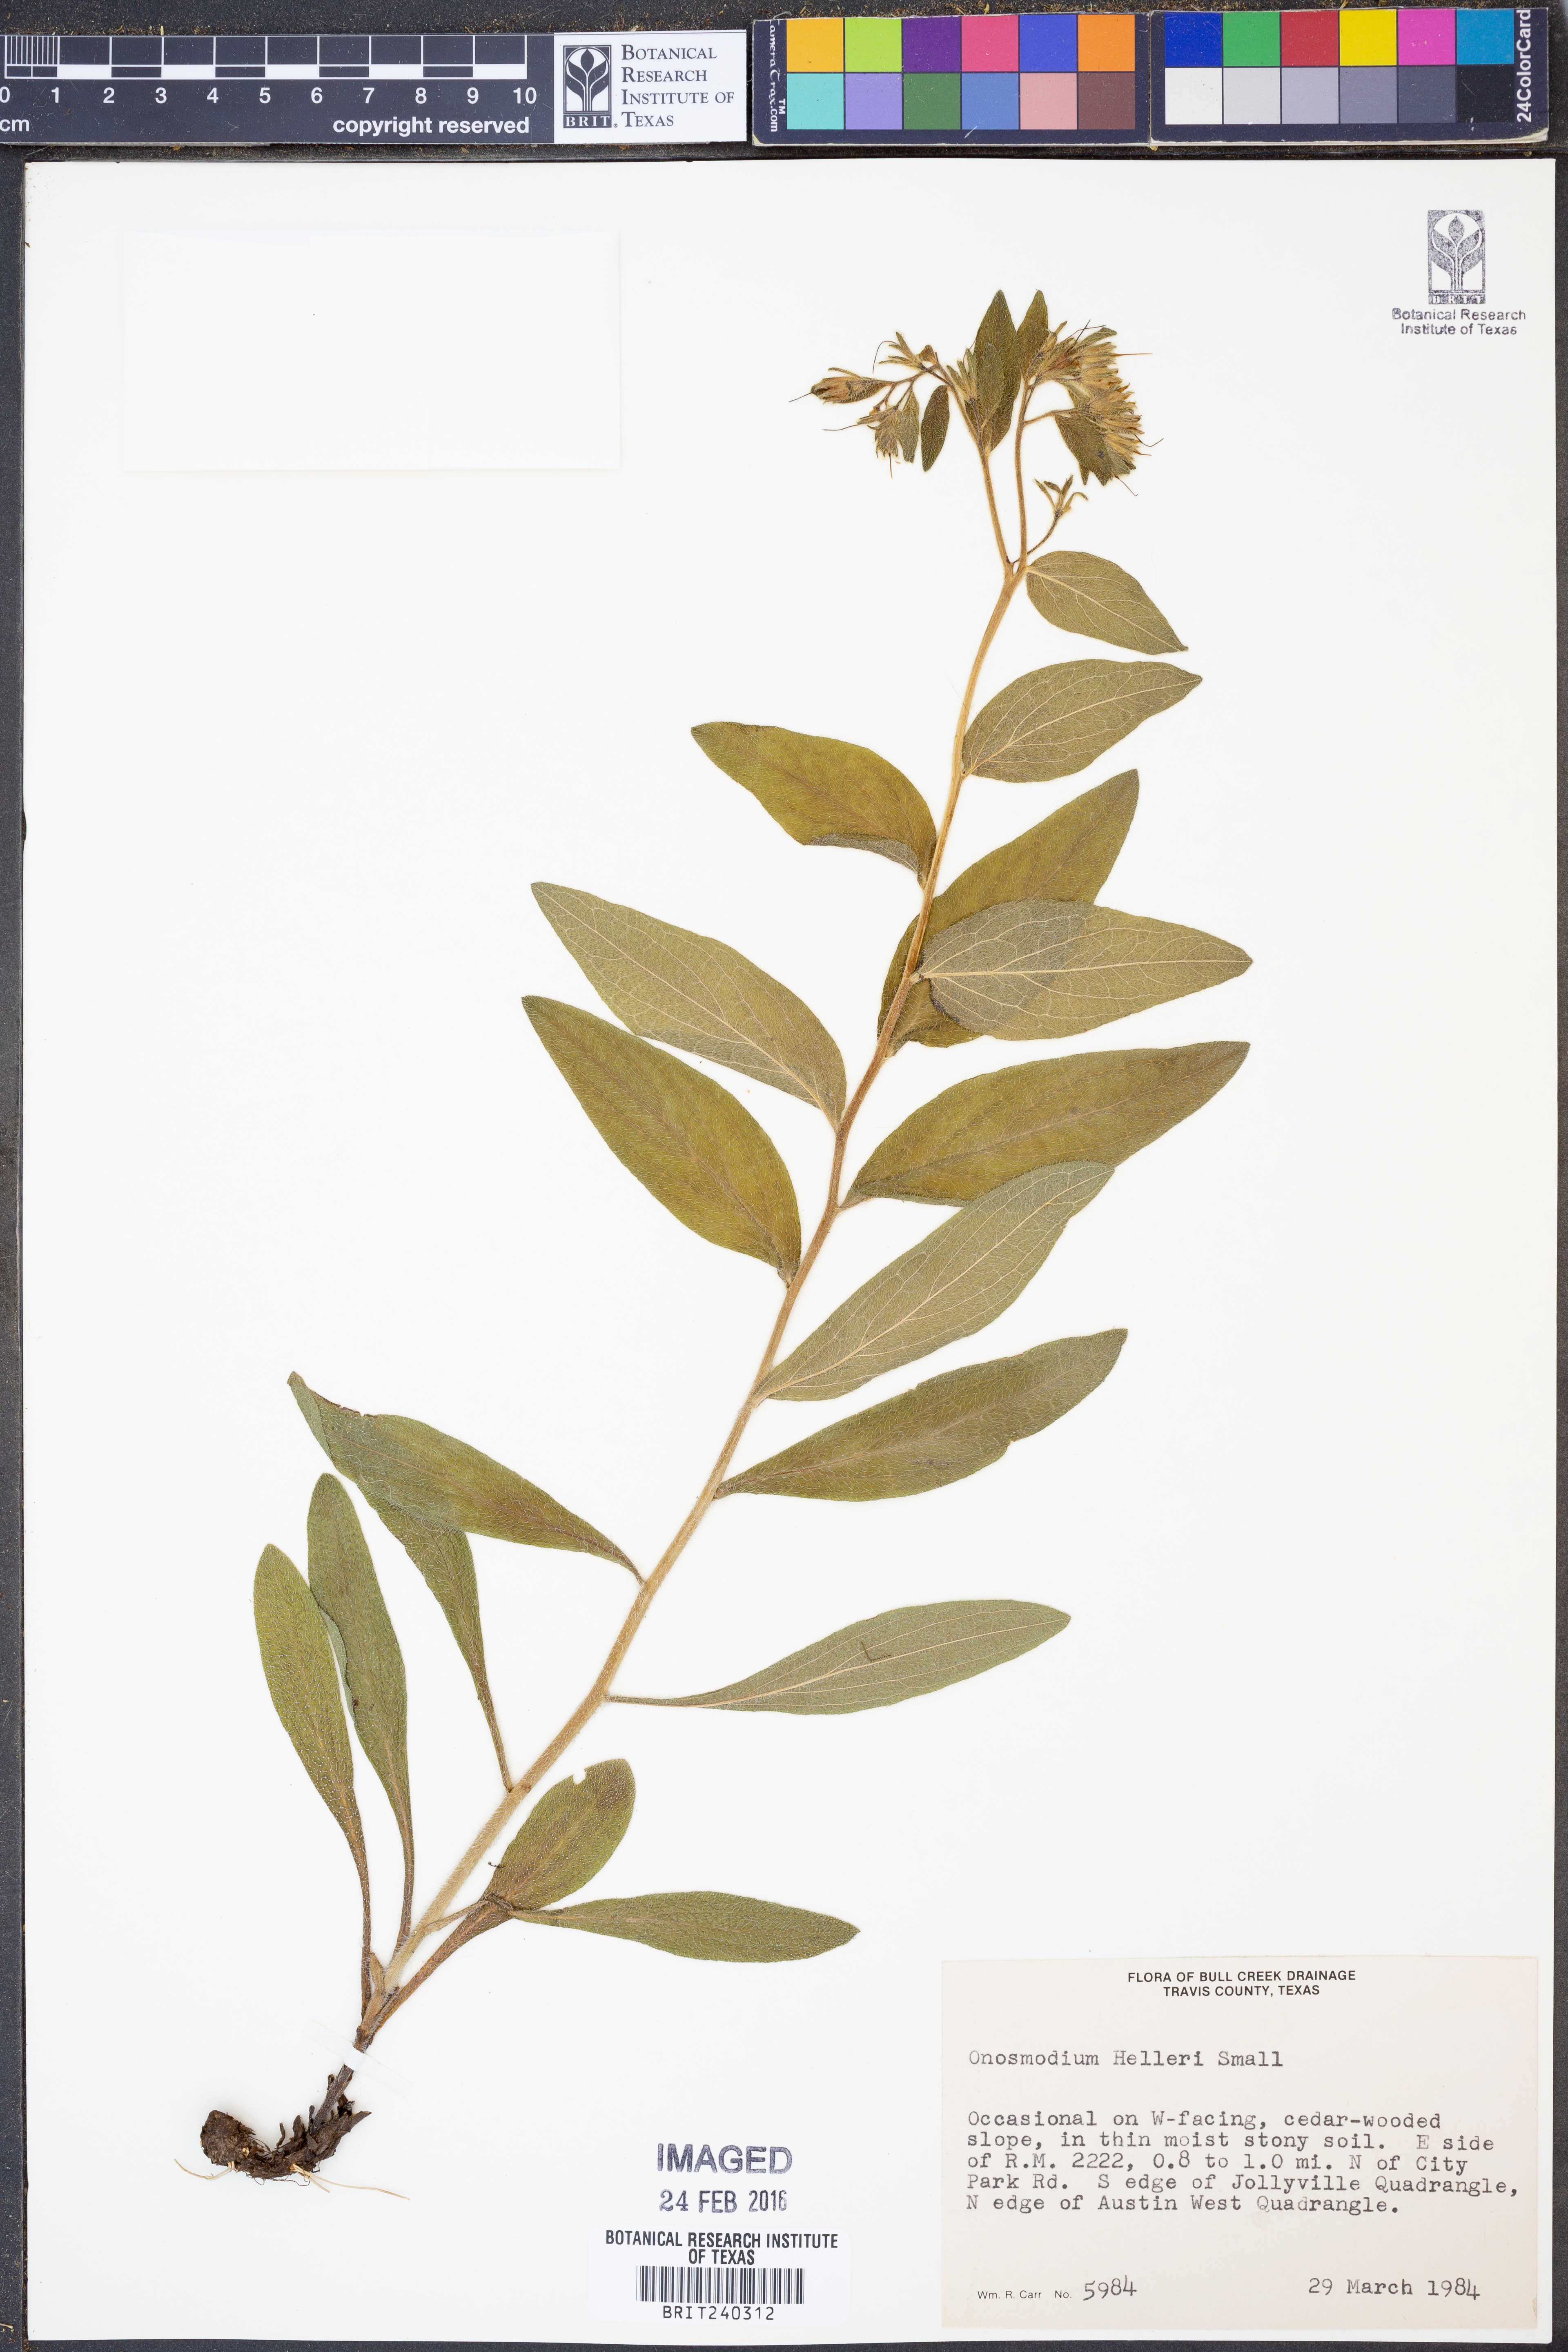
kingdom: Plantae
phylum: Tracheophyta
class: Magnoliopsida
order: Boraginales
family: Boraginaceae
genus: Lithospermum
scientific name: Lithospermum helleri
